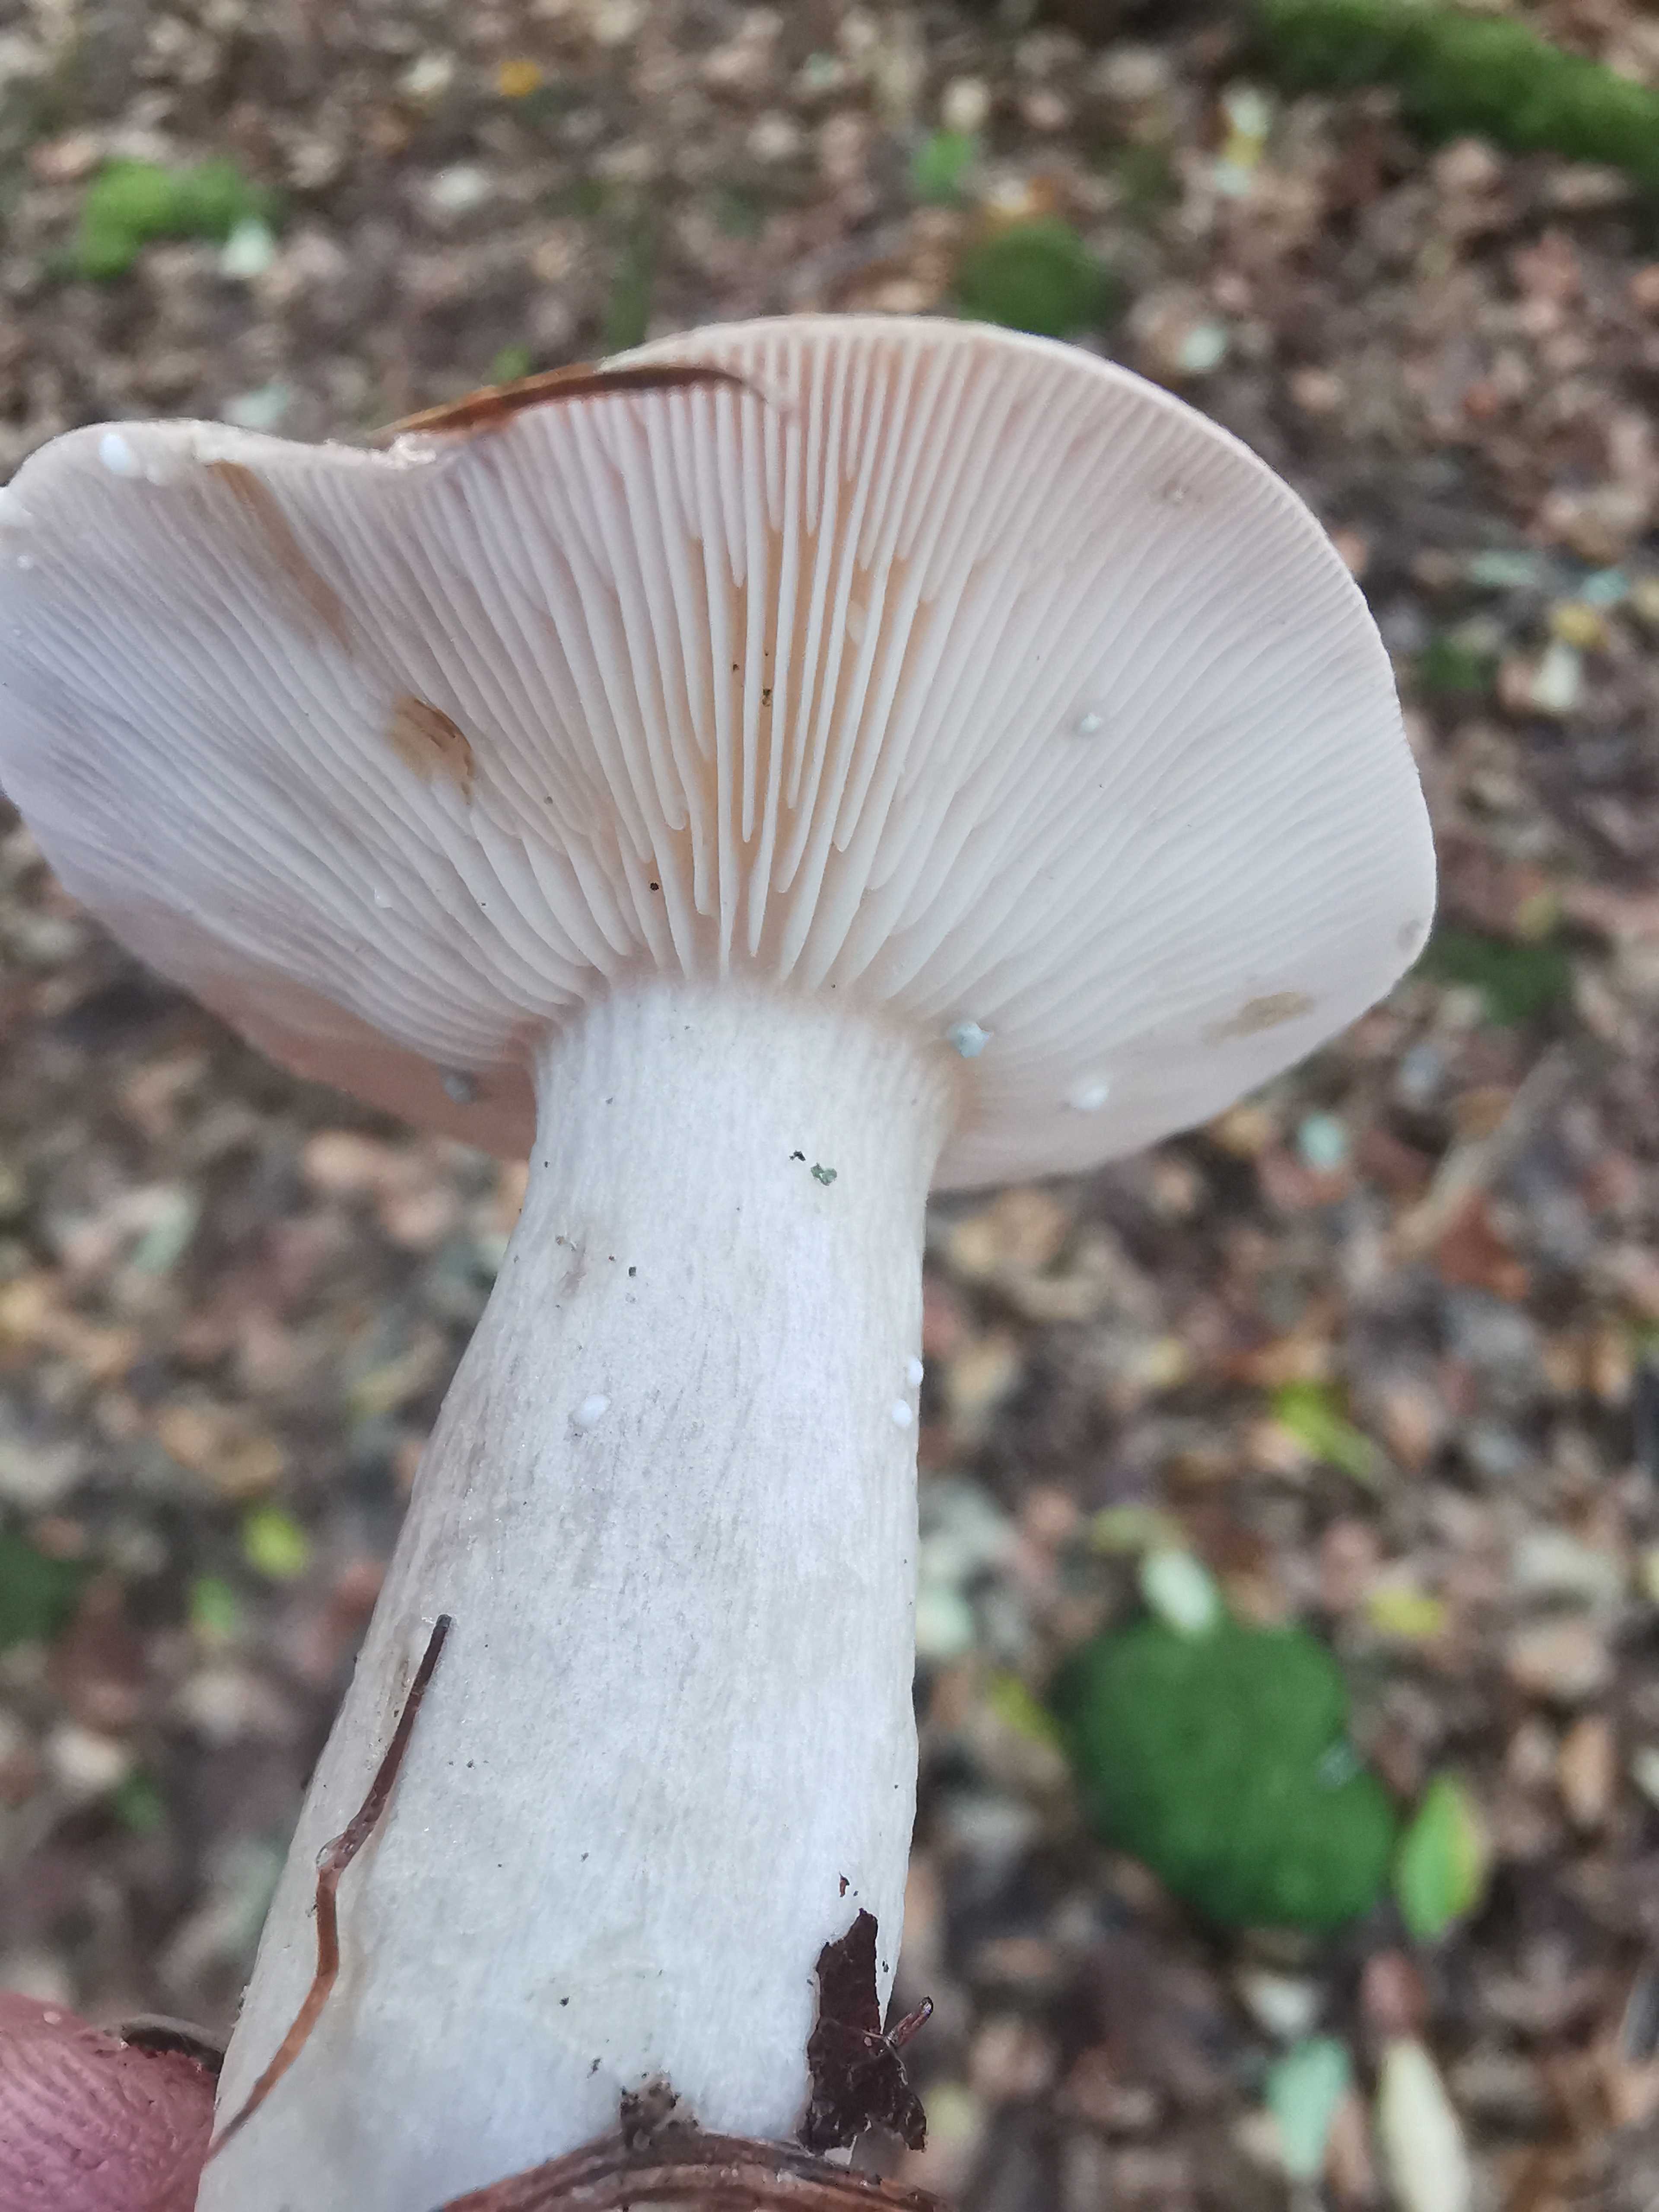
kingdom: Fungi
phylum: Basidiomycota
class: Agaricomycetes
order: Russulales
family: Russulaceae
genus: Lactarius
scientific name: Lactarius blennius
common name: dråbeplettet mælkehat
